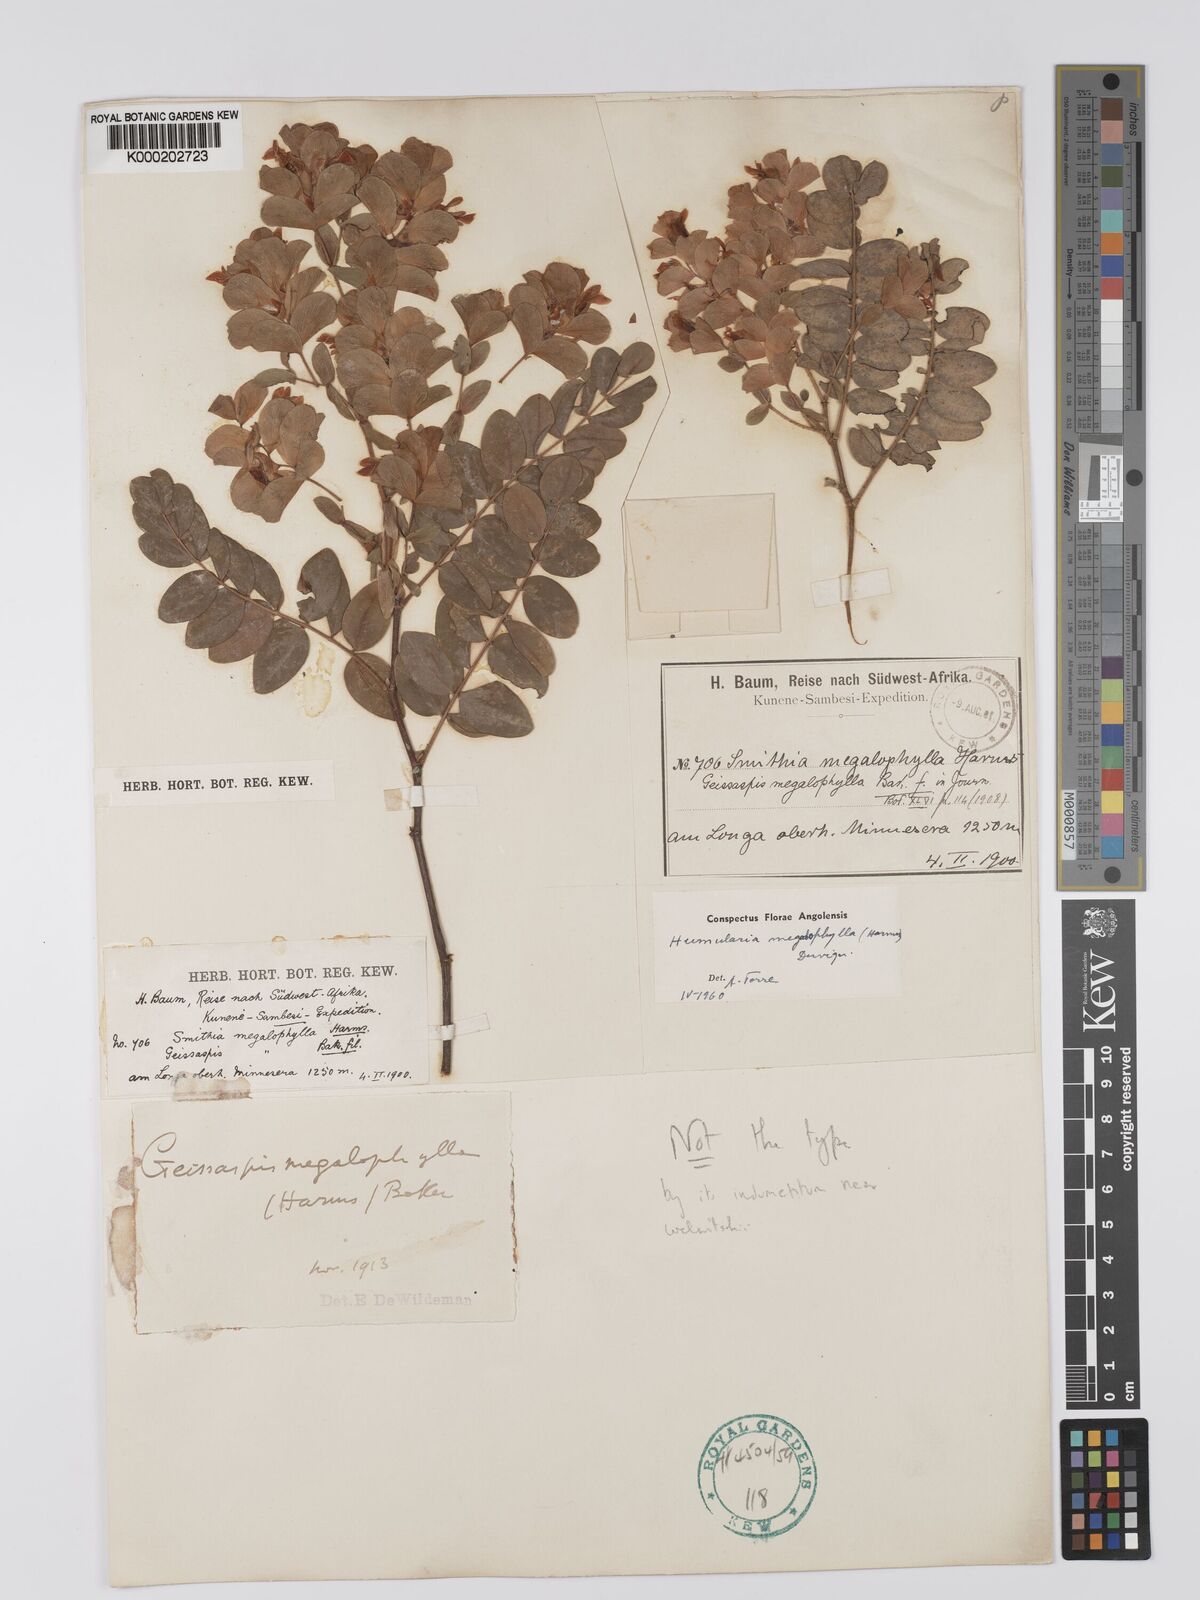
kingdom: Plantae
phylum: Tracheophyta
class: Magnoliopsida
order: Fabales
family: Fabaceae
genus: Humularia
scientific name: Humularia welwitschii
